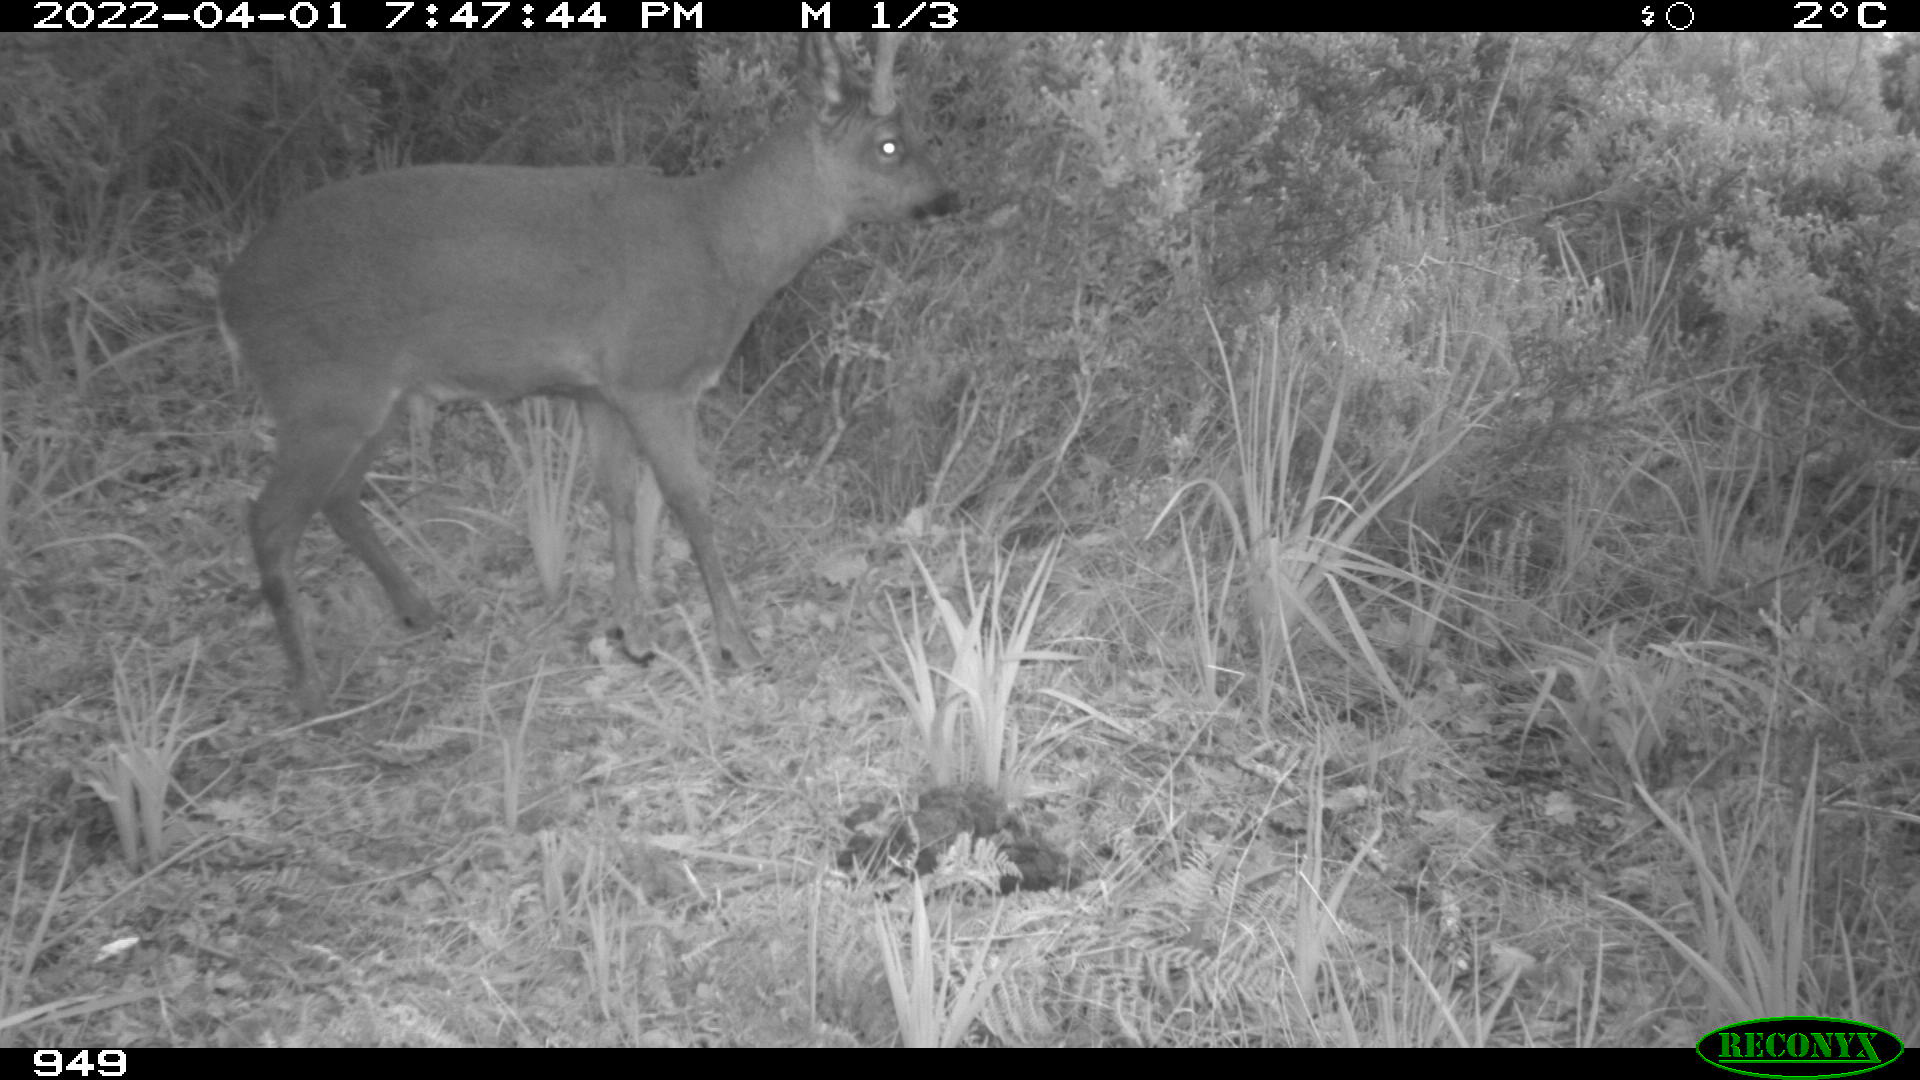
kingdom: Animalia
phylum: Chordata
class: Mammalia
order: Artiodactyla
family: Cervidae
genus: Capreolus
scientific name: Capreolus capreolus
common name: Western roe deer
